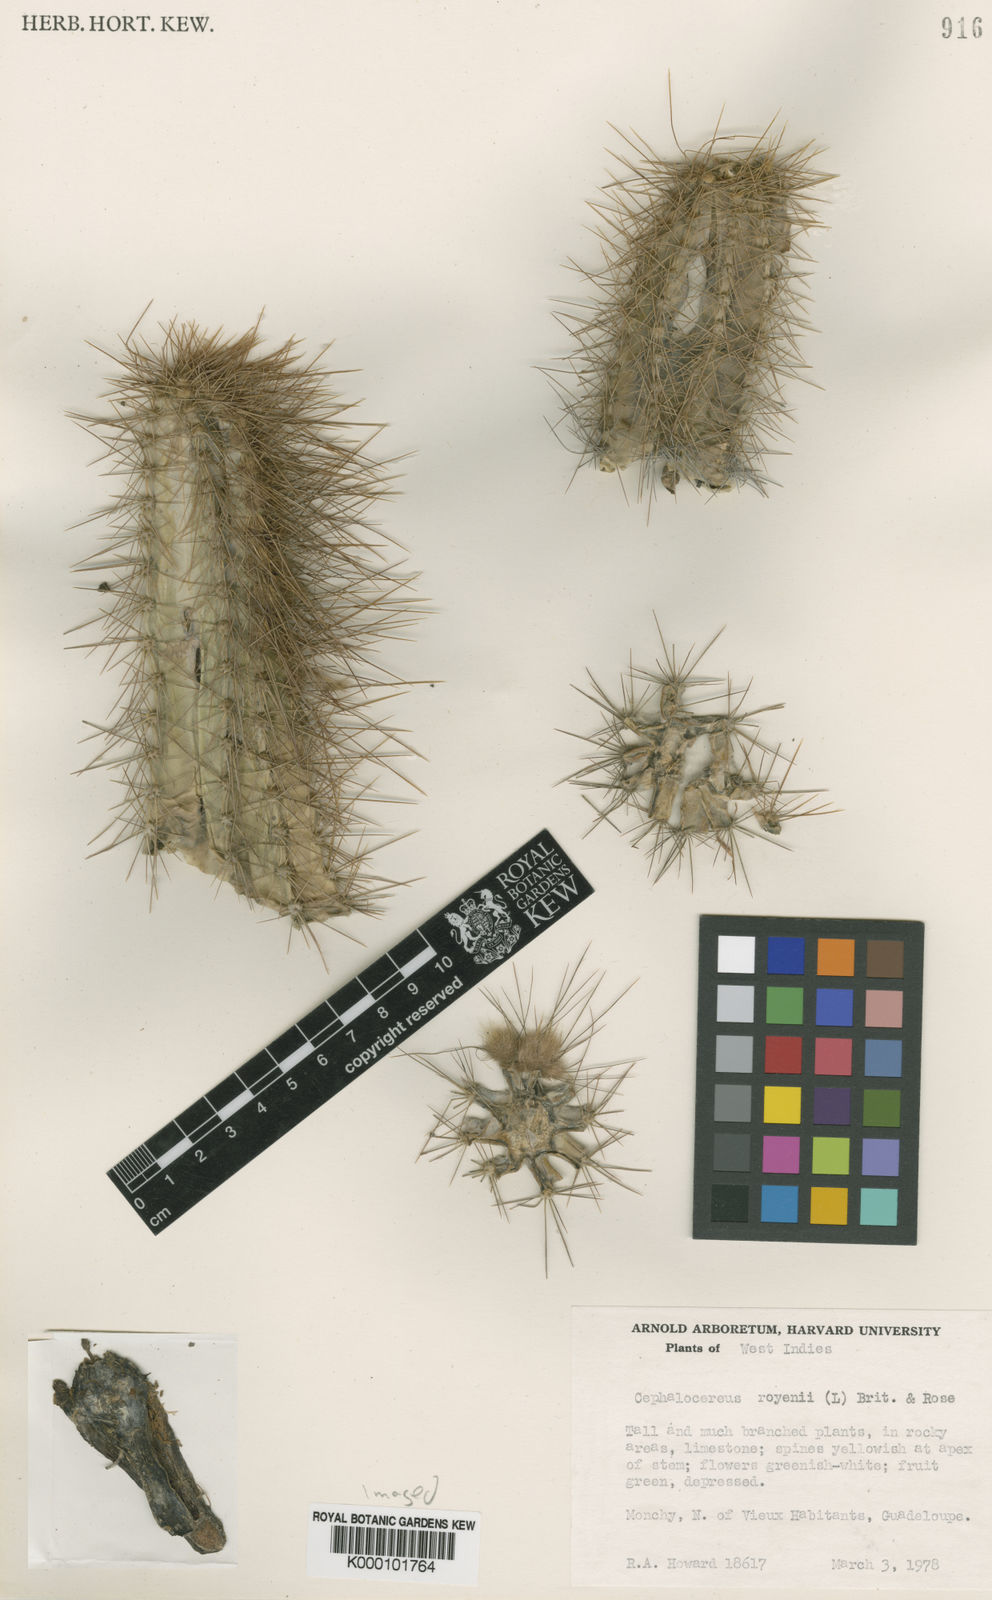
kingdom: Plantae
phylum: Tracheophyta
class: Magnoliopsida
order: Caryophyllales
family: Cactaceae
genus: Pilosocereus
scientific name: Pilosocereus polygonus
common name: Key tree cactus
